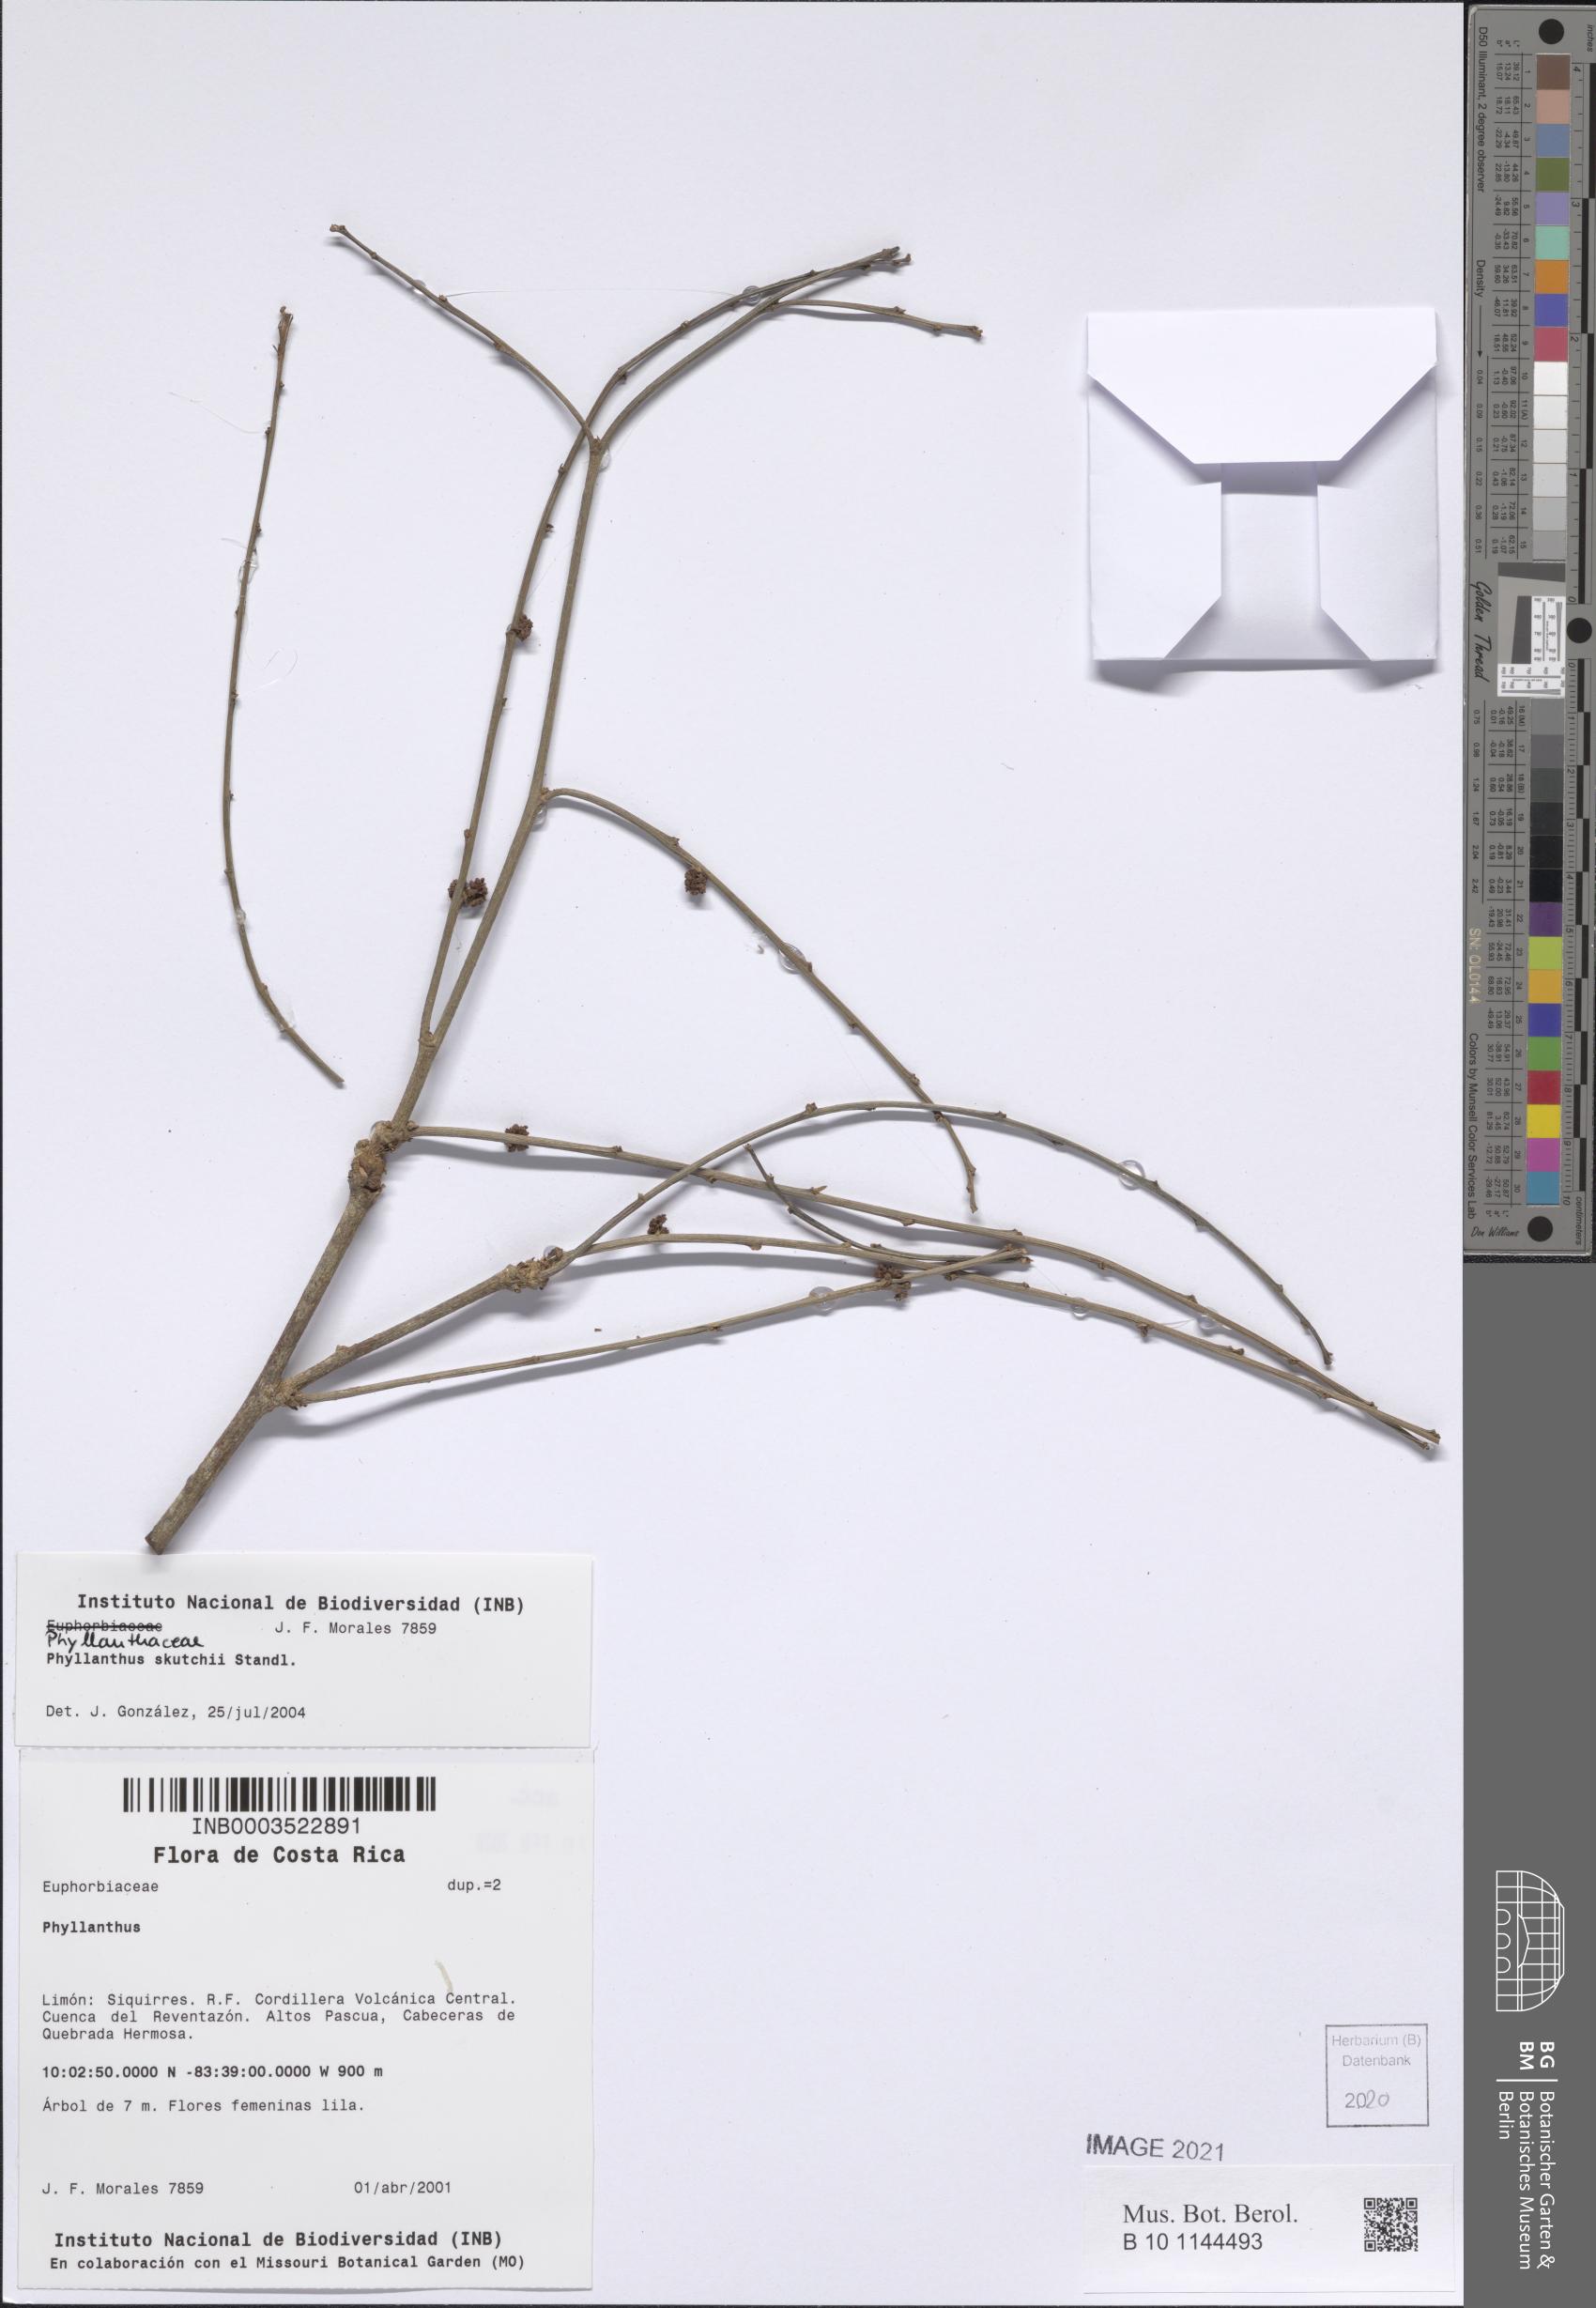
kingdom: Plantae
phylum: Tracheophyta
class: Magnoliopsida
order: Malpighiales
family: Phyllanthaceae
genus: Phyllanthus
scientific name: Phyllanthus skutchii
